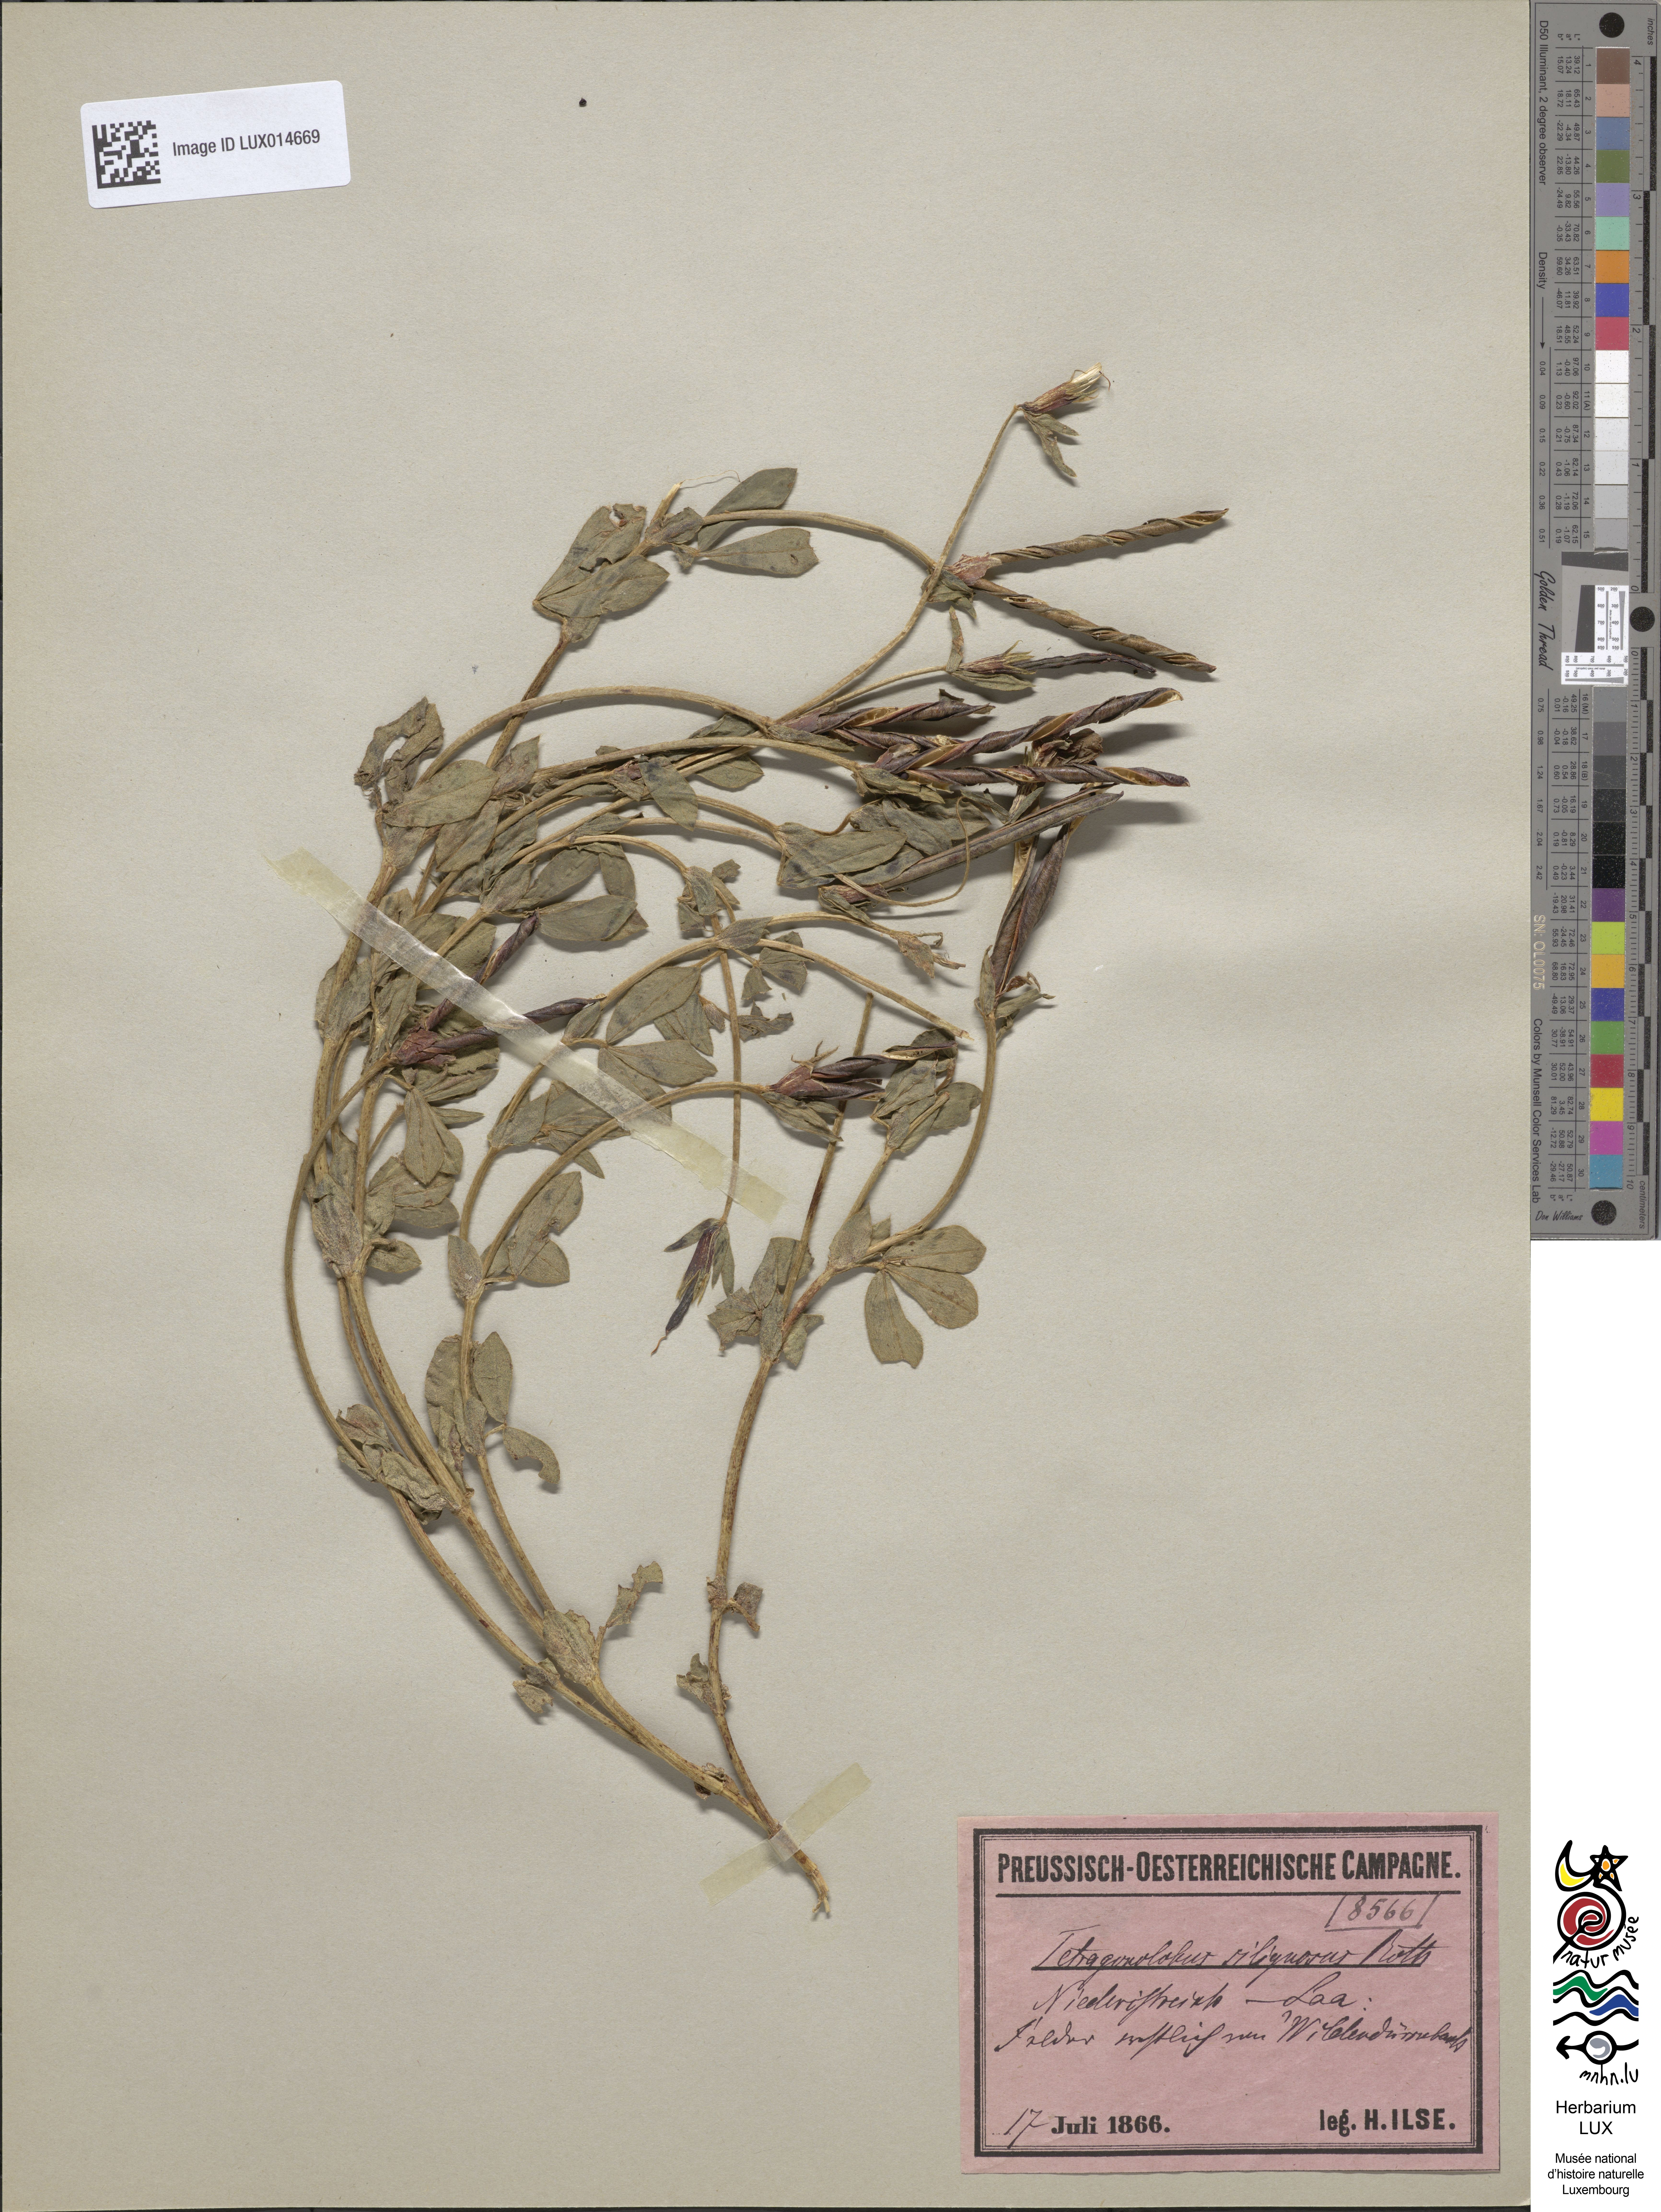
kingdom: Plantae
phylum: Tracheophyta
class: Magnoliopsida
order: Fabales
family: Fabaceae
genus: Lotus
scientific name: Lotus maritimus
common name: Dragon's-teeth
